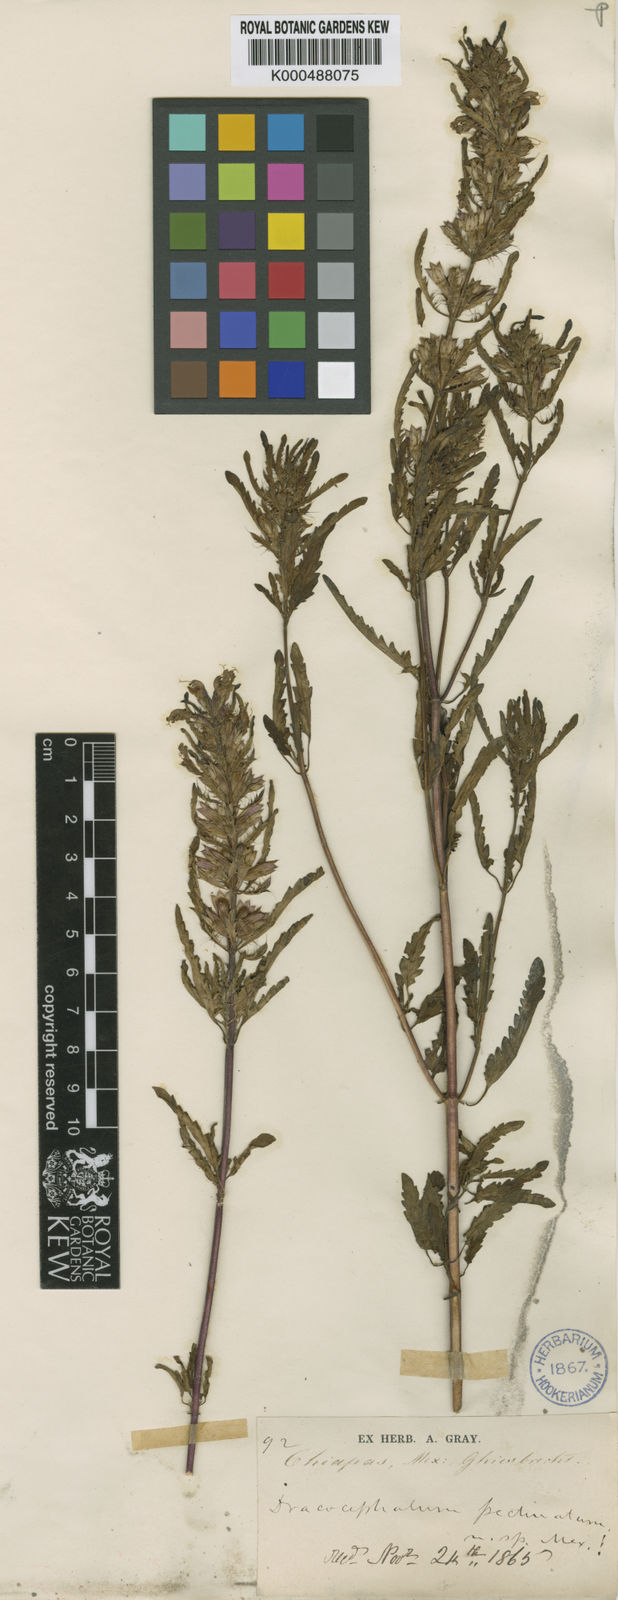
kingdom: Plantae
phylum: Tracheophyta
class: Magnoliopsida
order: Lamiales
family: Lamiaceae
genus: Dracocephalum
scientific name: Dracocephalum moldavica
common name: Moldavian dragonhead
